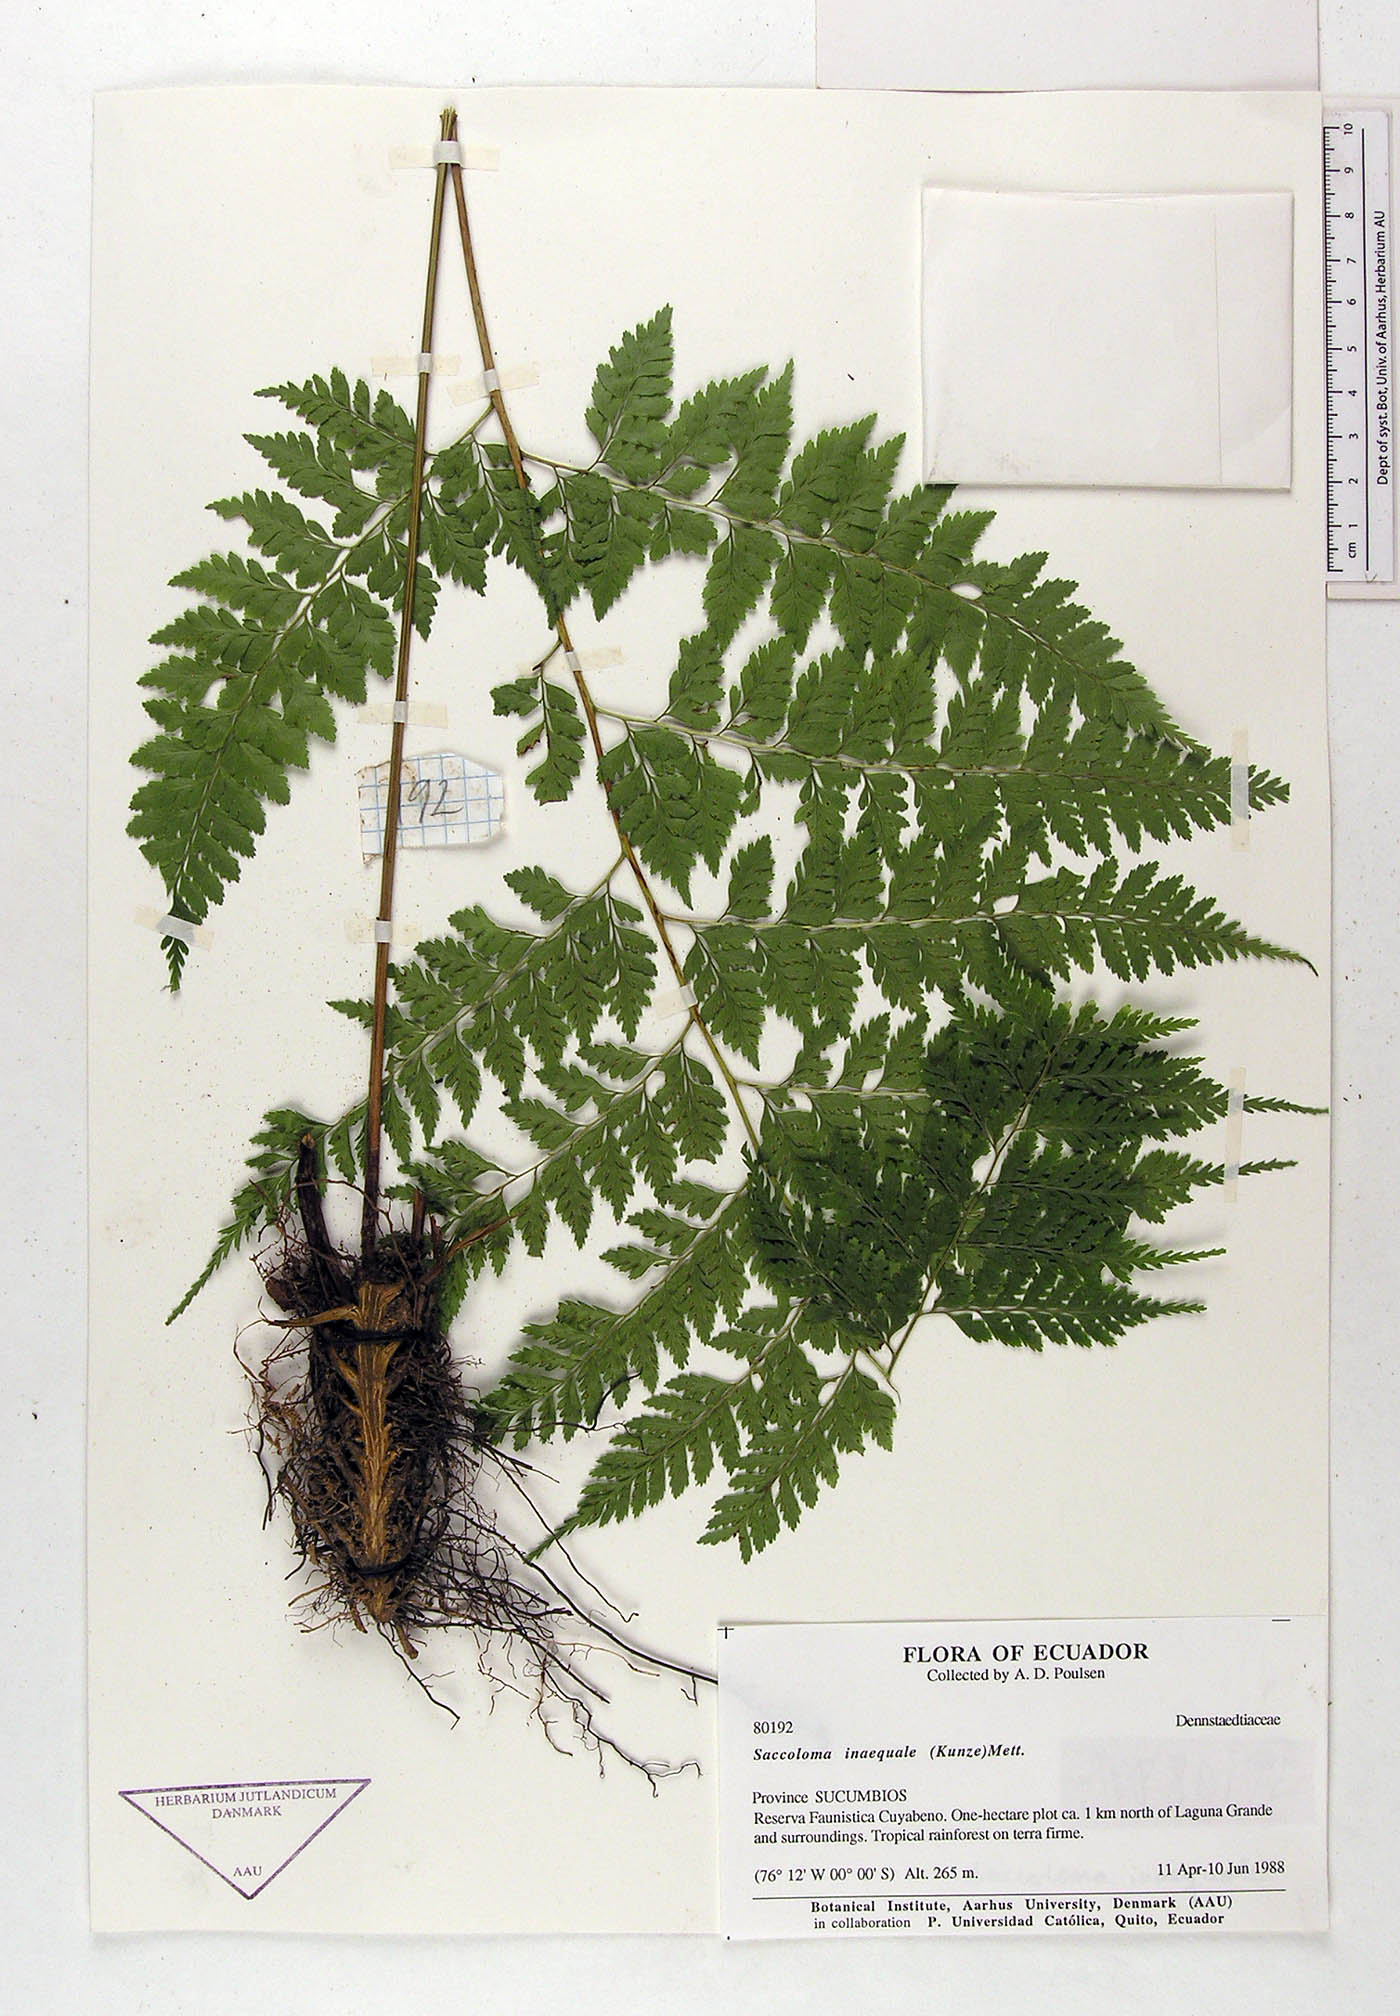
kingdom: Plantae
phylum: Tracheophyta
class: Polypodiopsida
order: Polypodiales
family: Saccolomataceae
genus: Saccoloma
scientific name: Saccoloma inaequale
